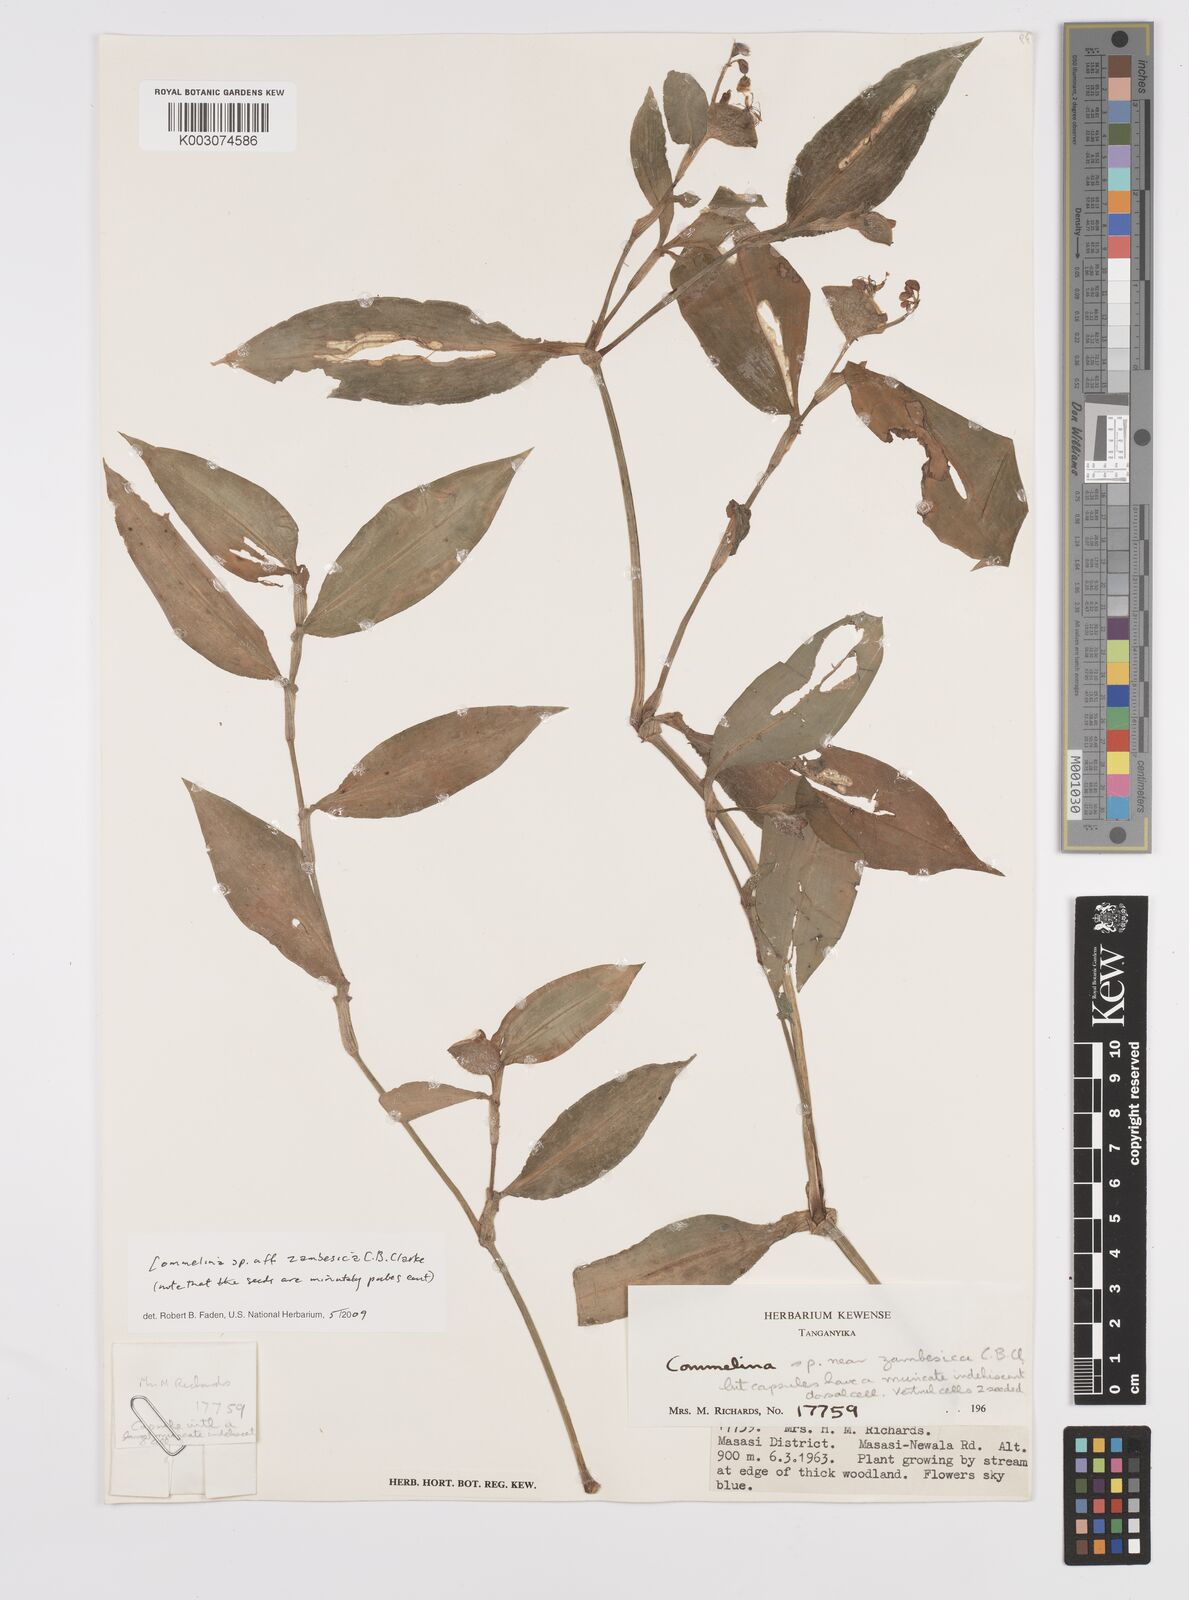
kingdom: Plantae
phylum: Tracheophyta
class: Liliopsida
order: Commelinales
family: Commelinaceae
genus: Commelina
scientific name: Commelina zambesica
